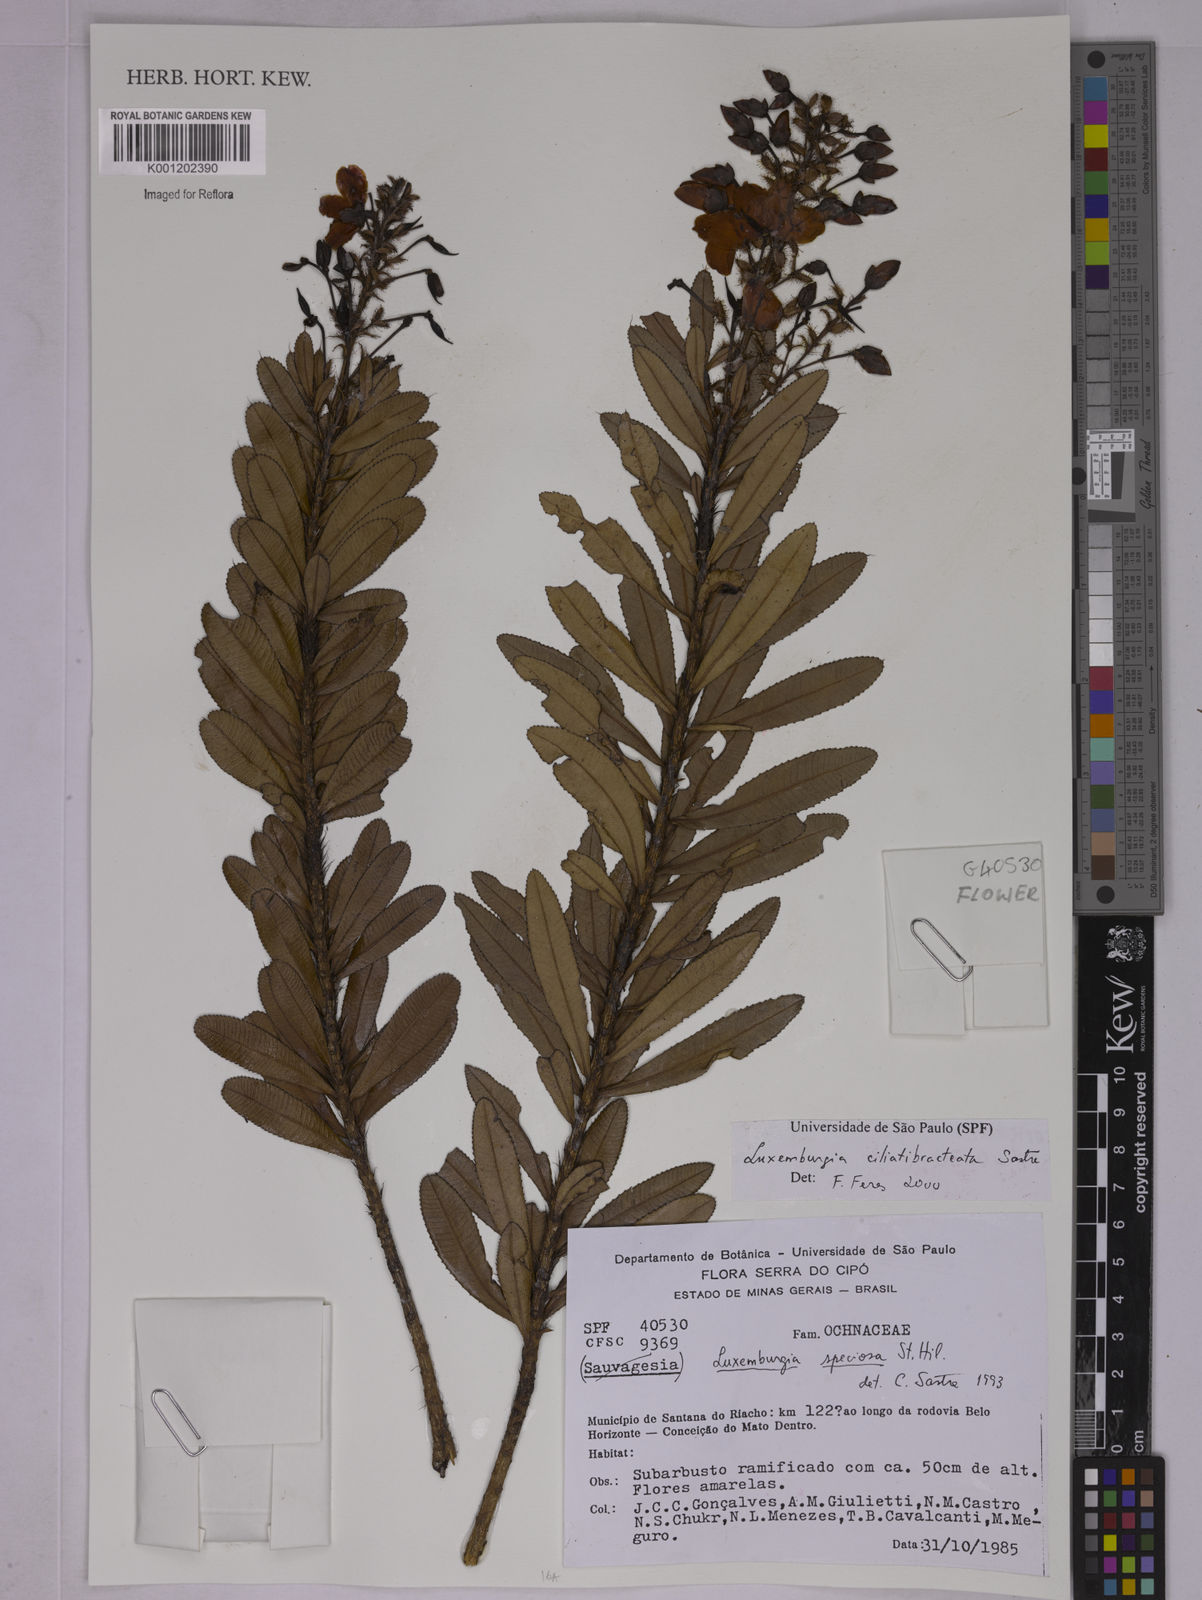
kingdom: Plantae
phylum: Tracheophyta
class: Magnoliopsida
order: Malpighiales
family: Ochnaceae
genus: Luxemburgia
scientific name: Luxemburgia ciliatibracteata
